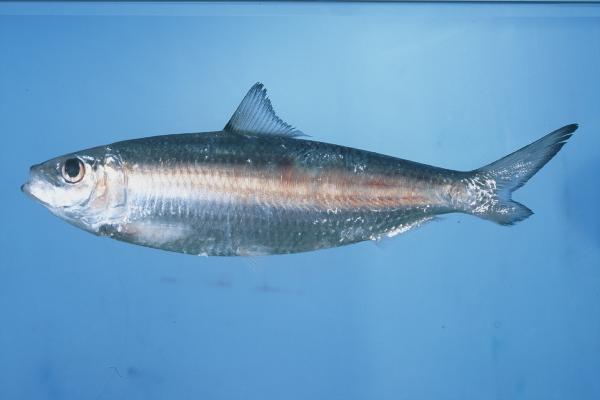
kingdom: Animalia
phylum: Chordata
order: Clupeiformes
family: Clupeidae
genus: Sardinella
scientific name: Sardinella gibbosa
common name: Goldstripe sardinella
